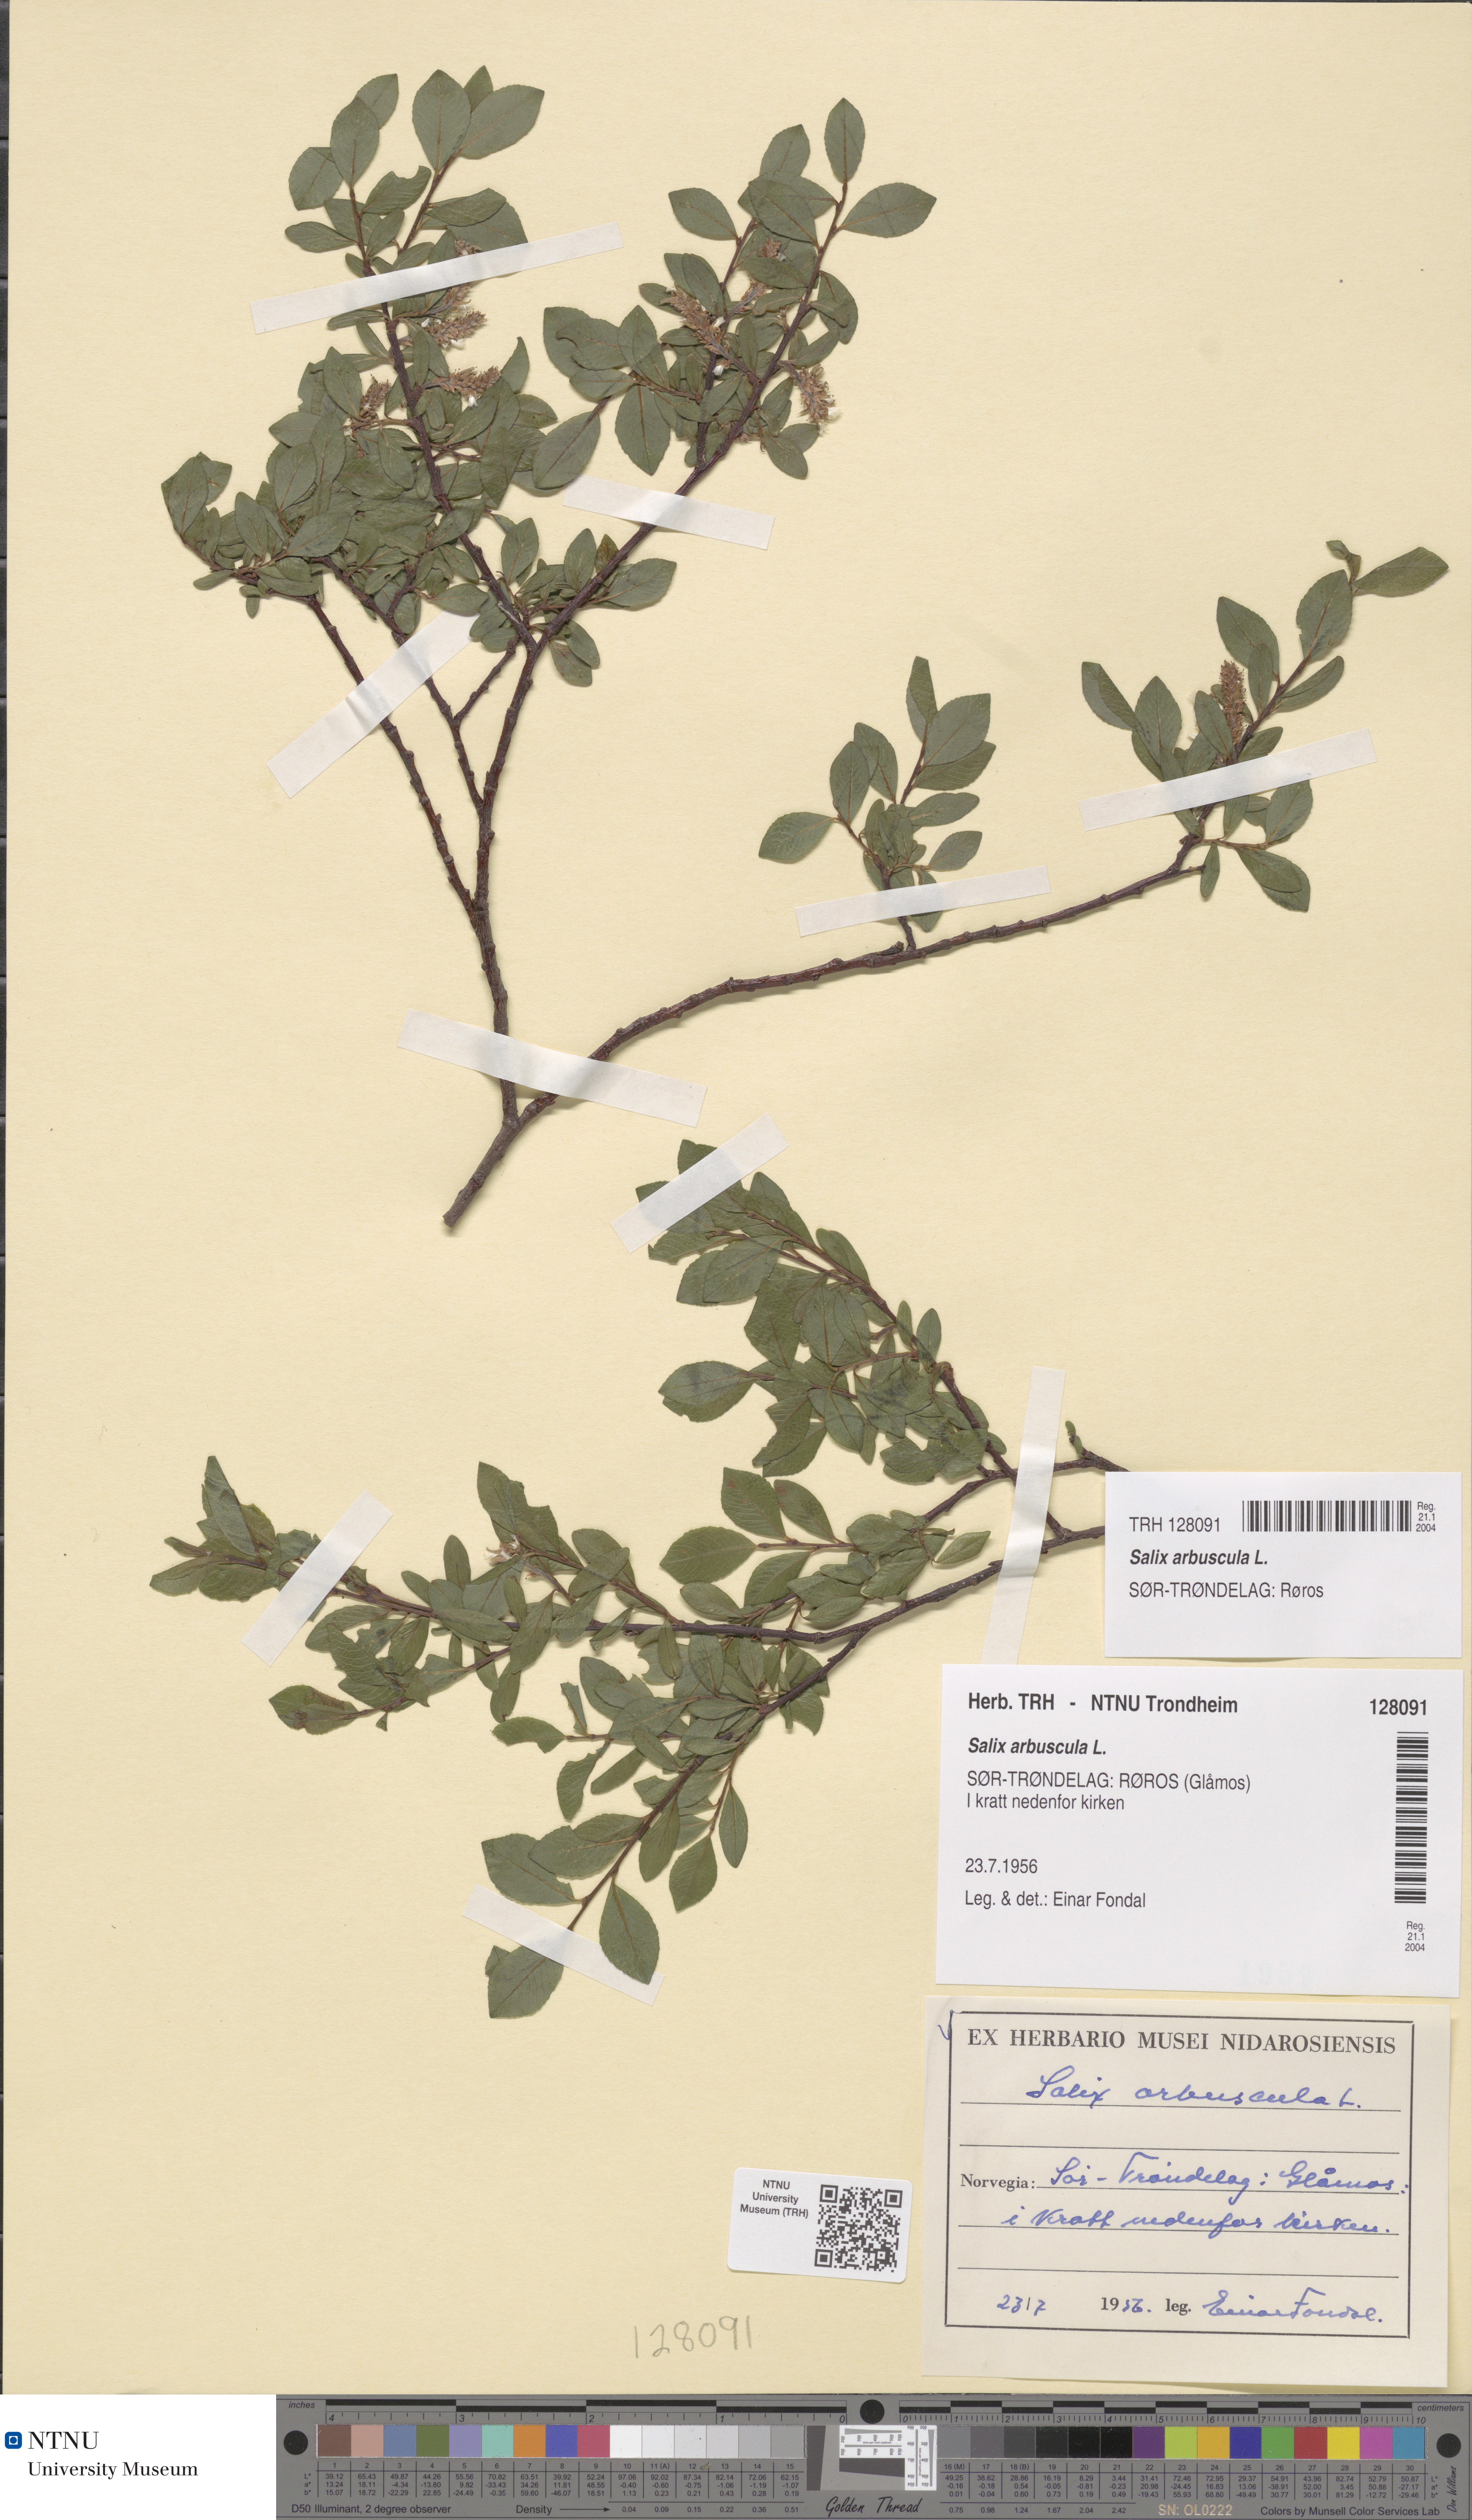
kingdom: Plantae
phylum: Tracheophyta
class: Magnoliopsida
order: Malpighiales
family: Salicaceae
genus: Salix
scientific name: Salix arbuscula
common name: Mountain willow
